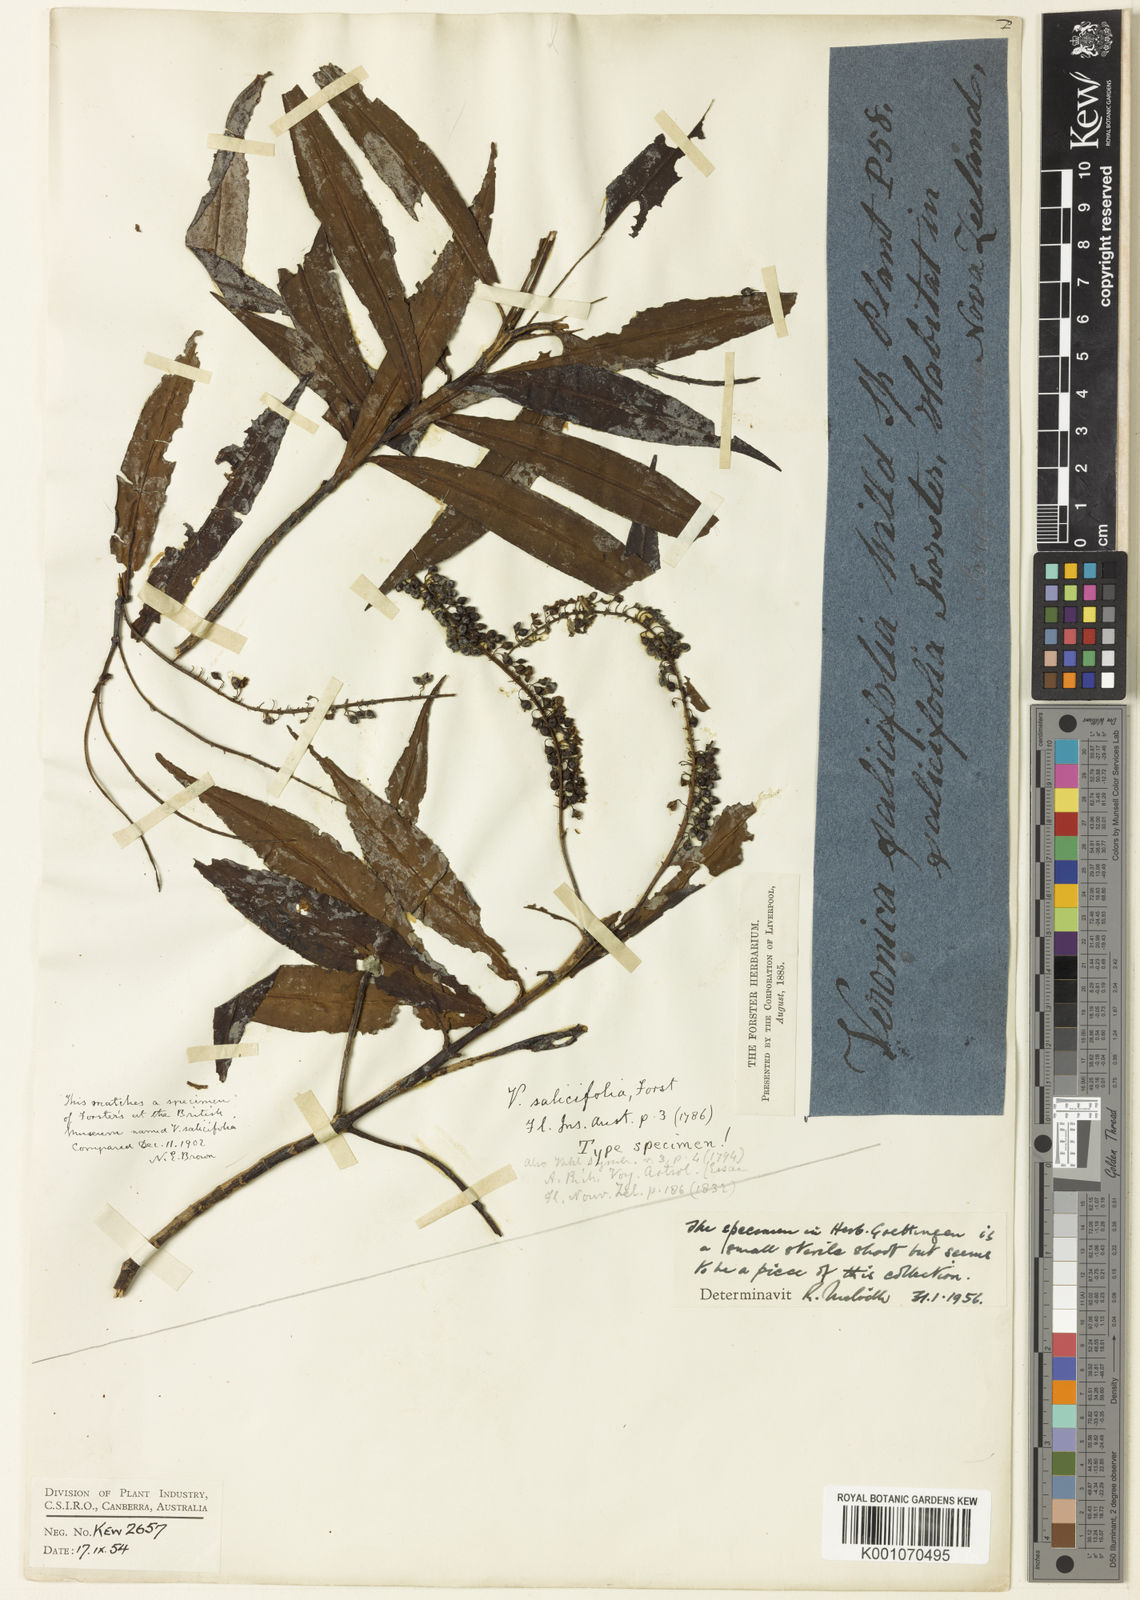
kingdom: Plantae
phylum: Tracheophyta
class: Magnoliopsida
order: Lamiales
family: Plantaginaceae
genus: Veronica
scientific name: Veronica salicifolia
